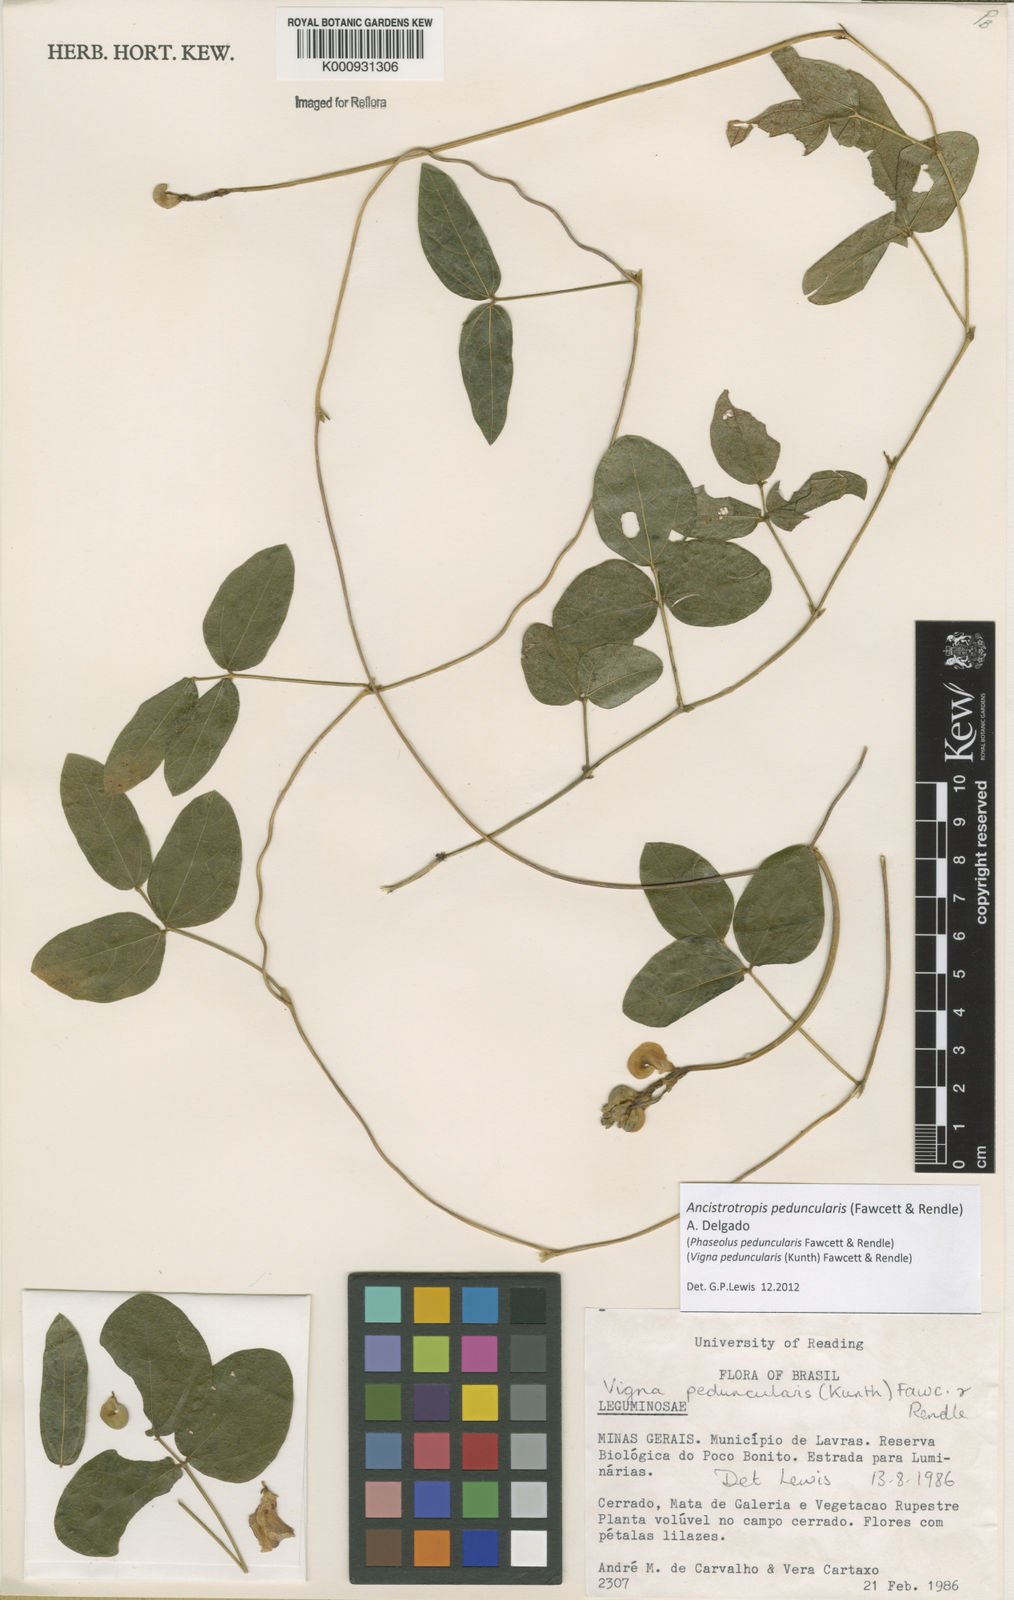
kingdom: Plantae
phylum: Tracheophyta
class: Magnoliopsida
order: Fabales
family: Fabaceae
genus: Ancistrotropis
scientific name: Ancistrotropis peduncularis
